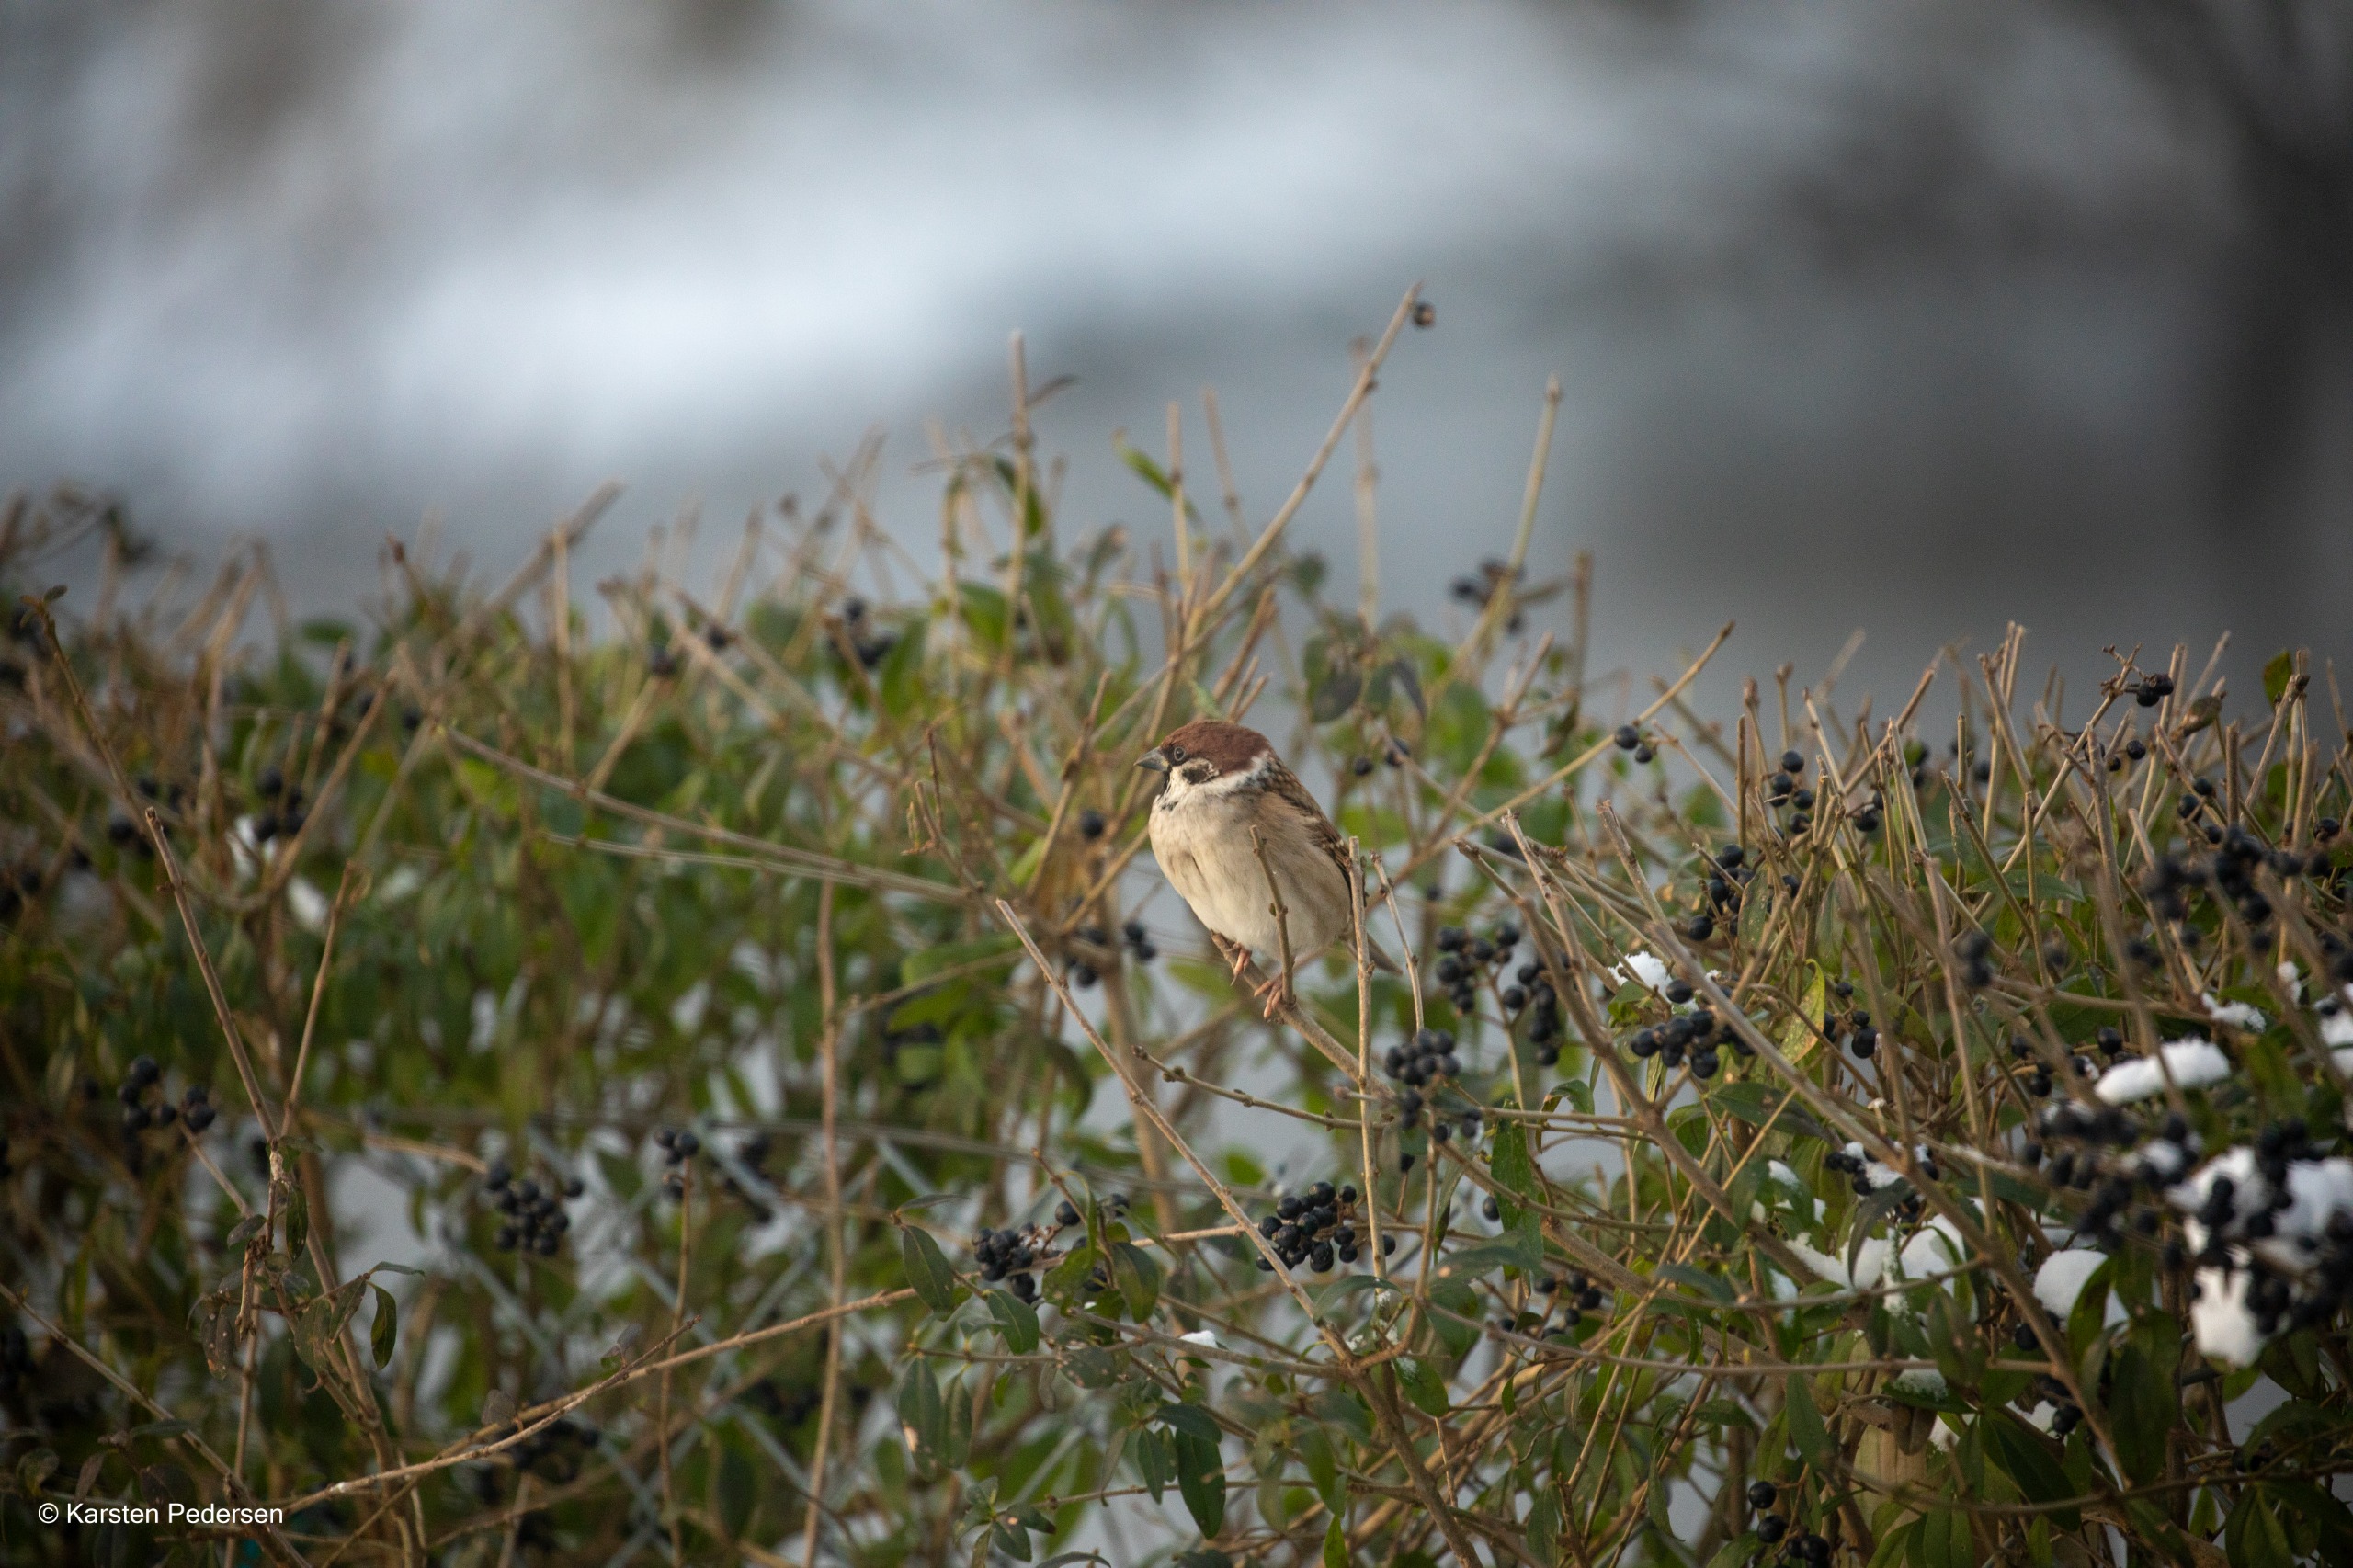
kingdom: Animalia
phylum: Chordata
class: Aves
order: Passeriformes
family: Passeridae
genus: Passer
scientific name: Passer montanus
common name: Skovspurv
